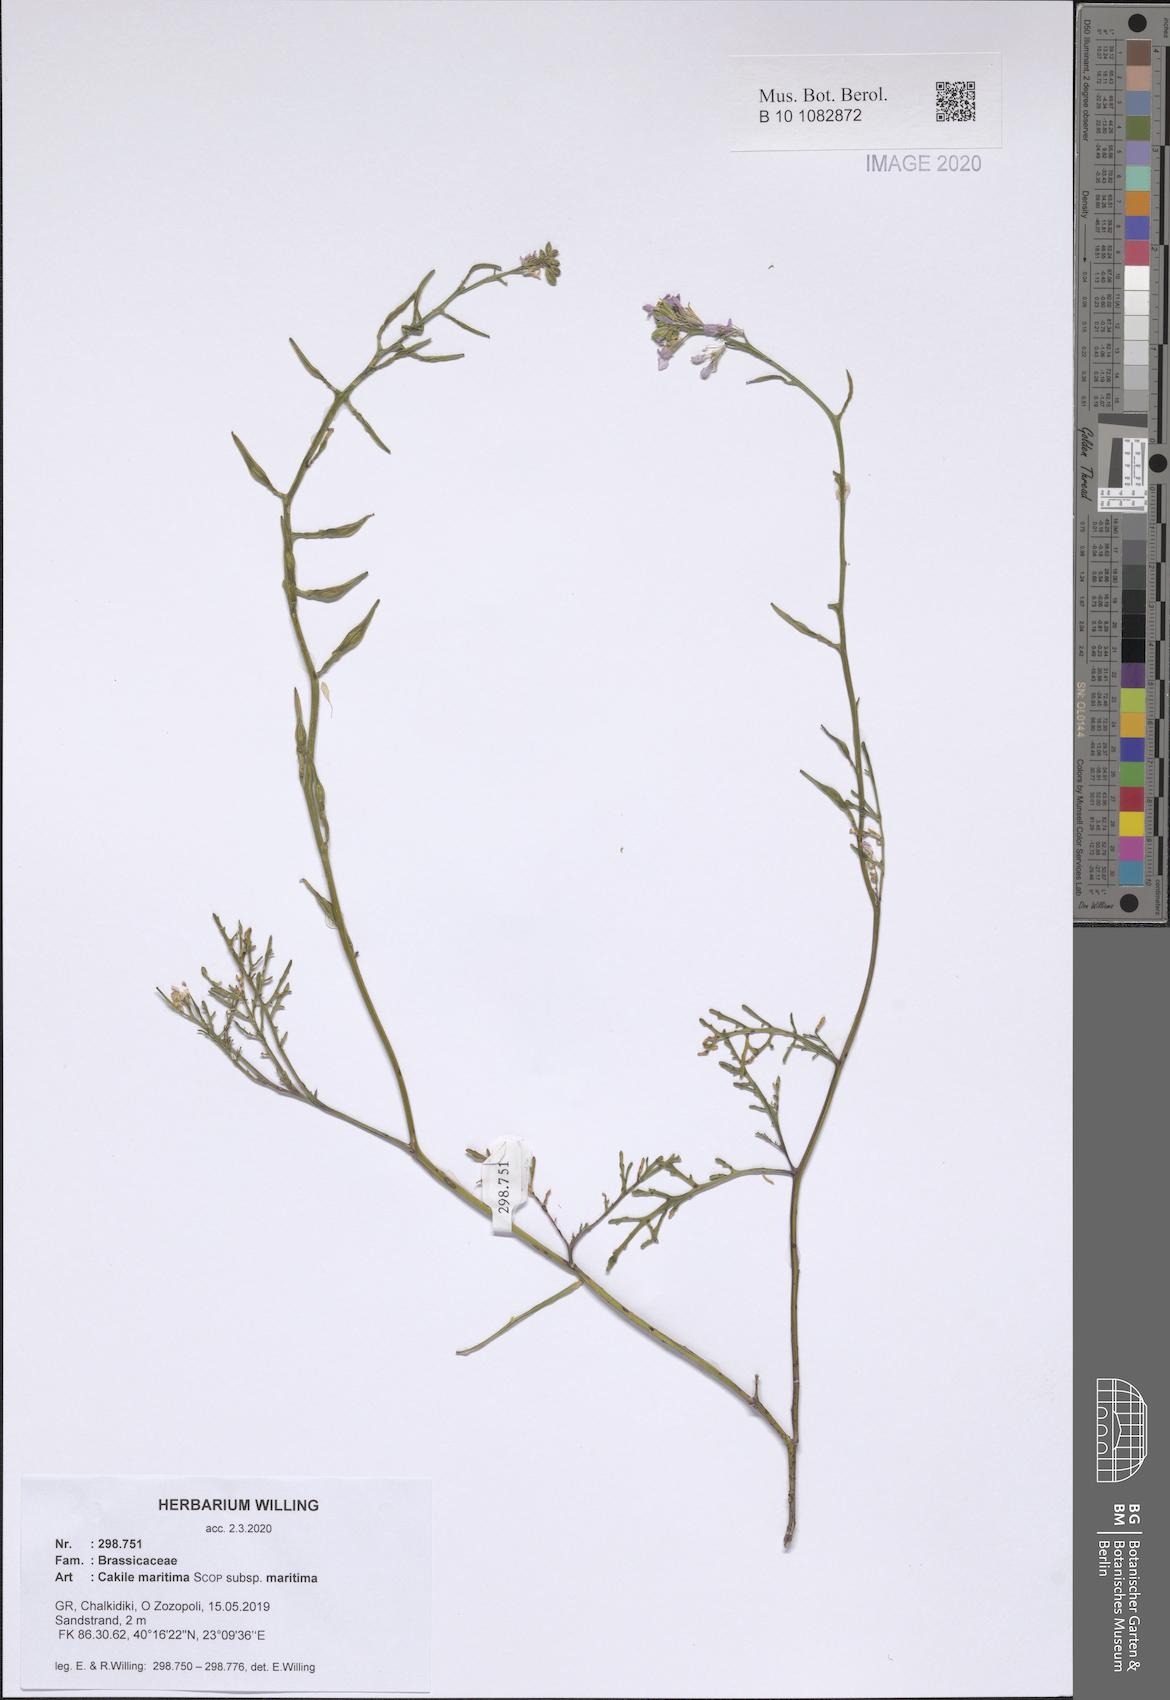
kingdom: Plantae
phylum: Tracheophyta
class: Magnoliopsida
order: Brassicales
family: Brassicaceae
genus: Cakile
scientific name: Cakile maritima
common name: Sea rocket
